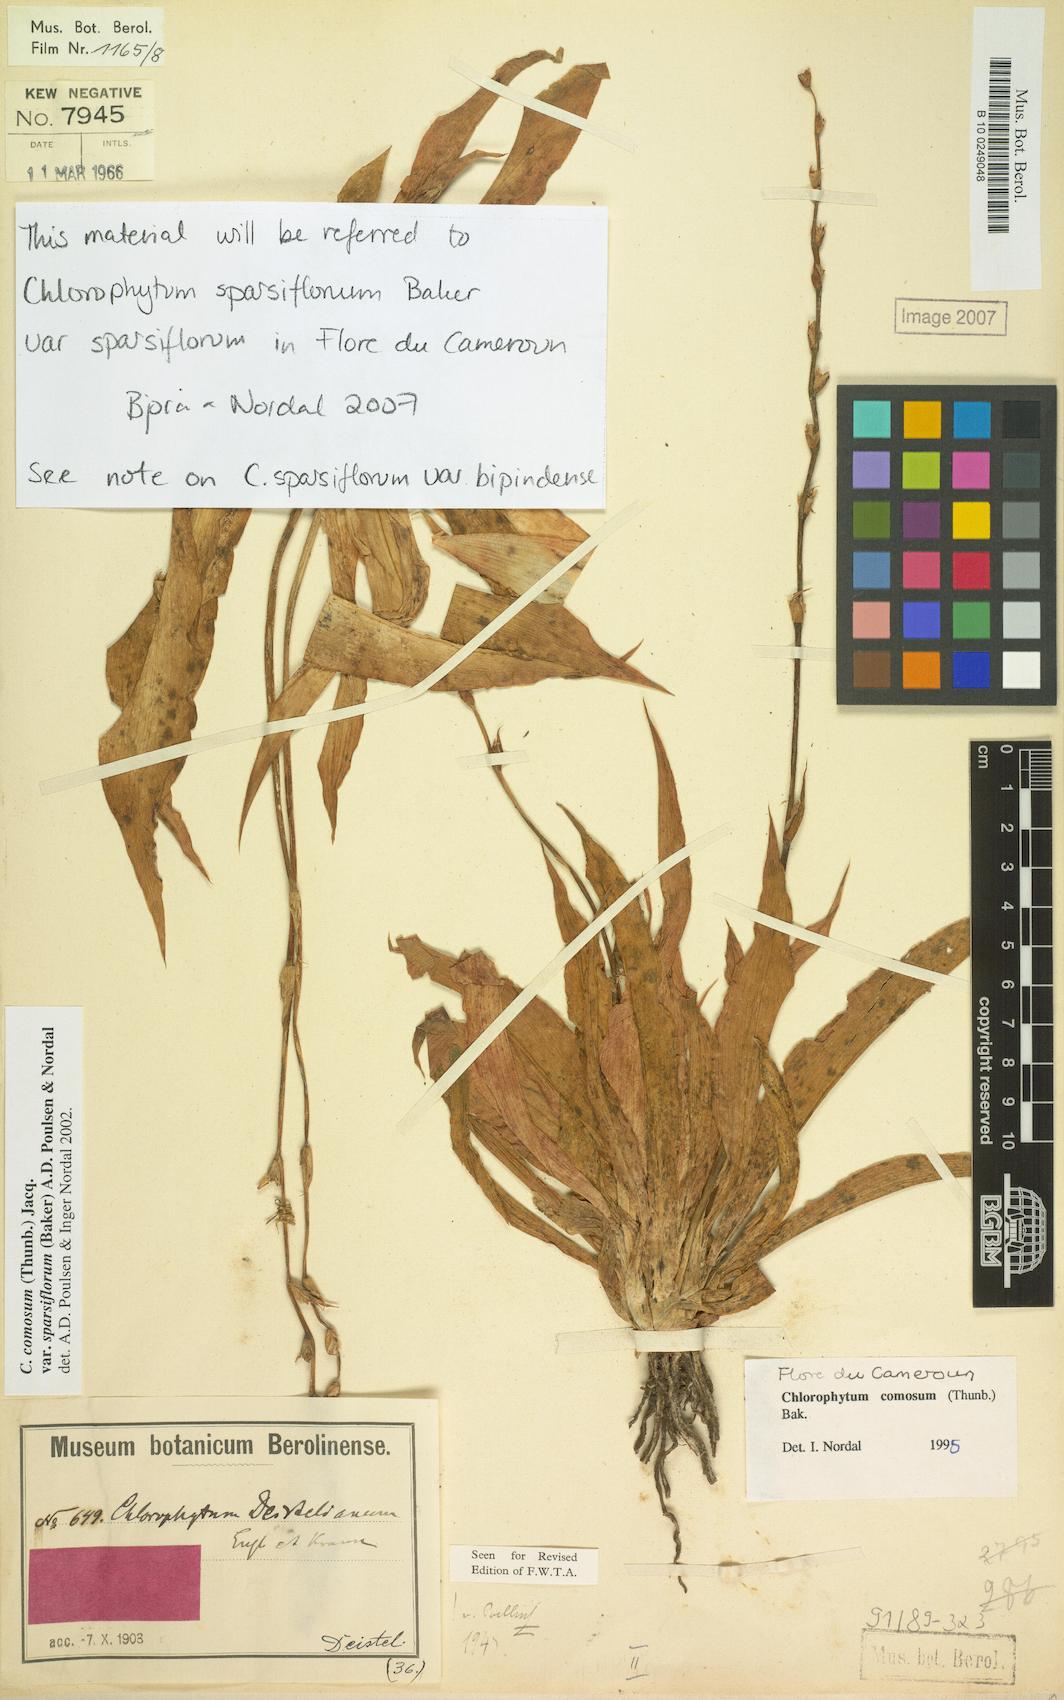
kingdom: Plantae
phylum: Tracheophyta
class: Liliopsida
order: Asparagales
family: Asparagaceae
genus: Chlorophytum
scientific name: Chlorophytum sparsiflorum
